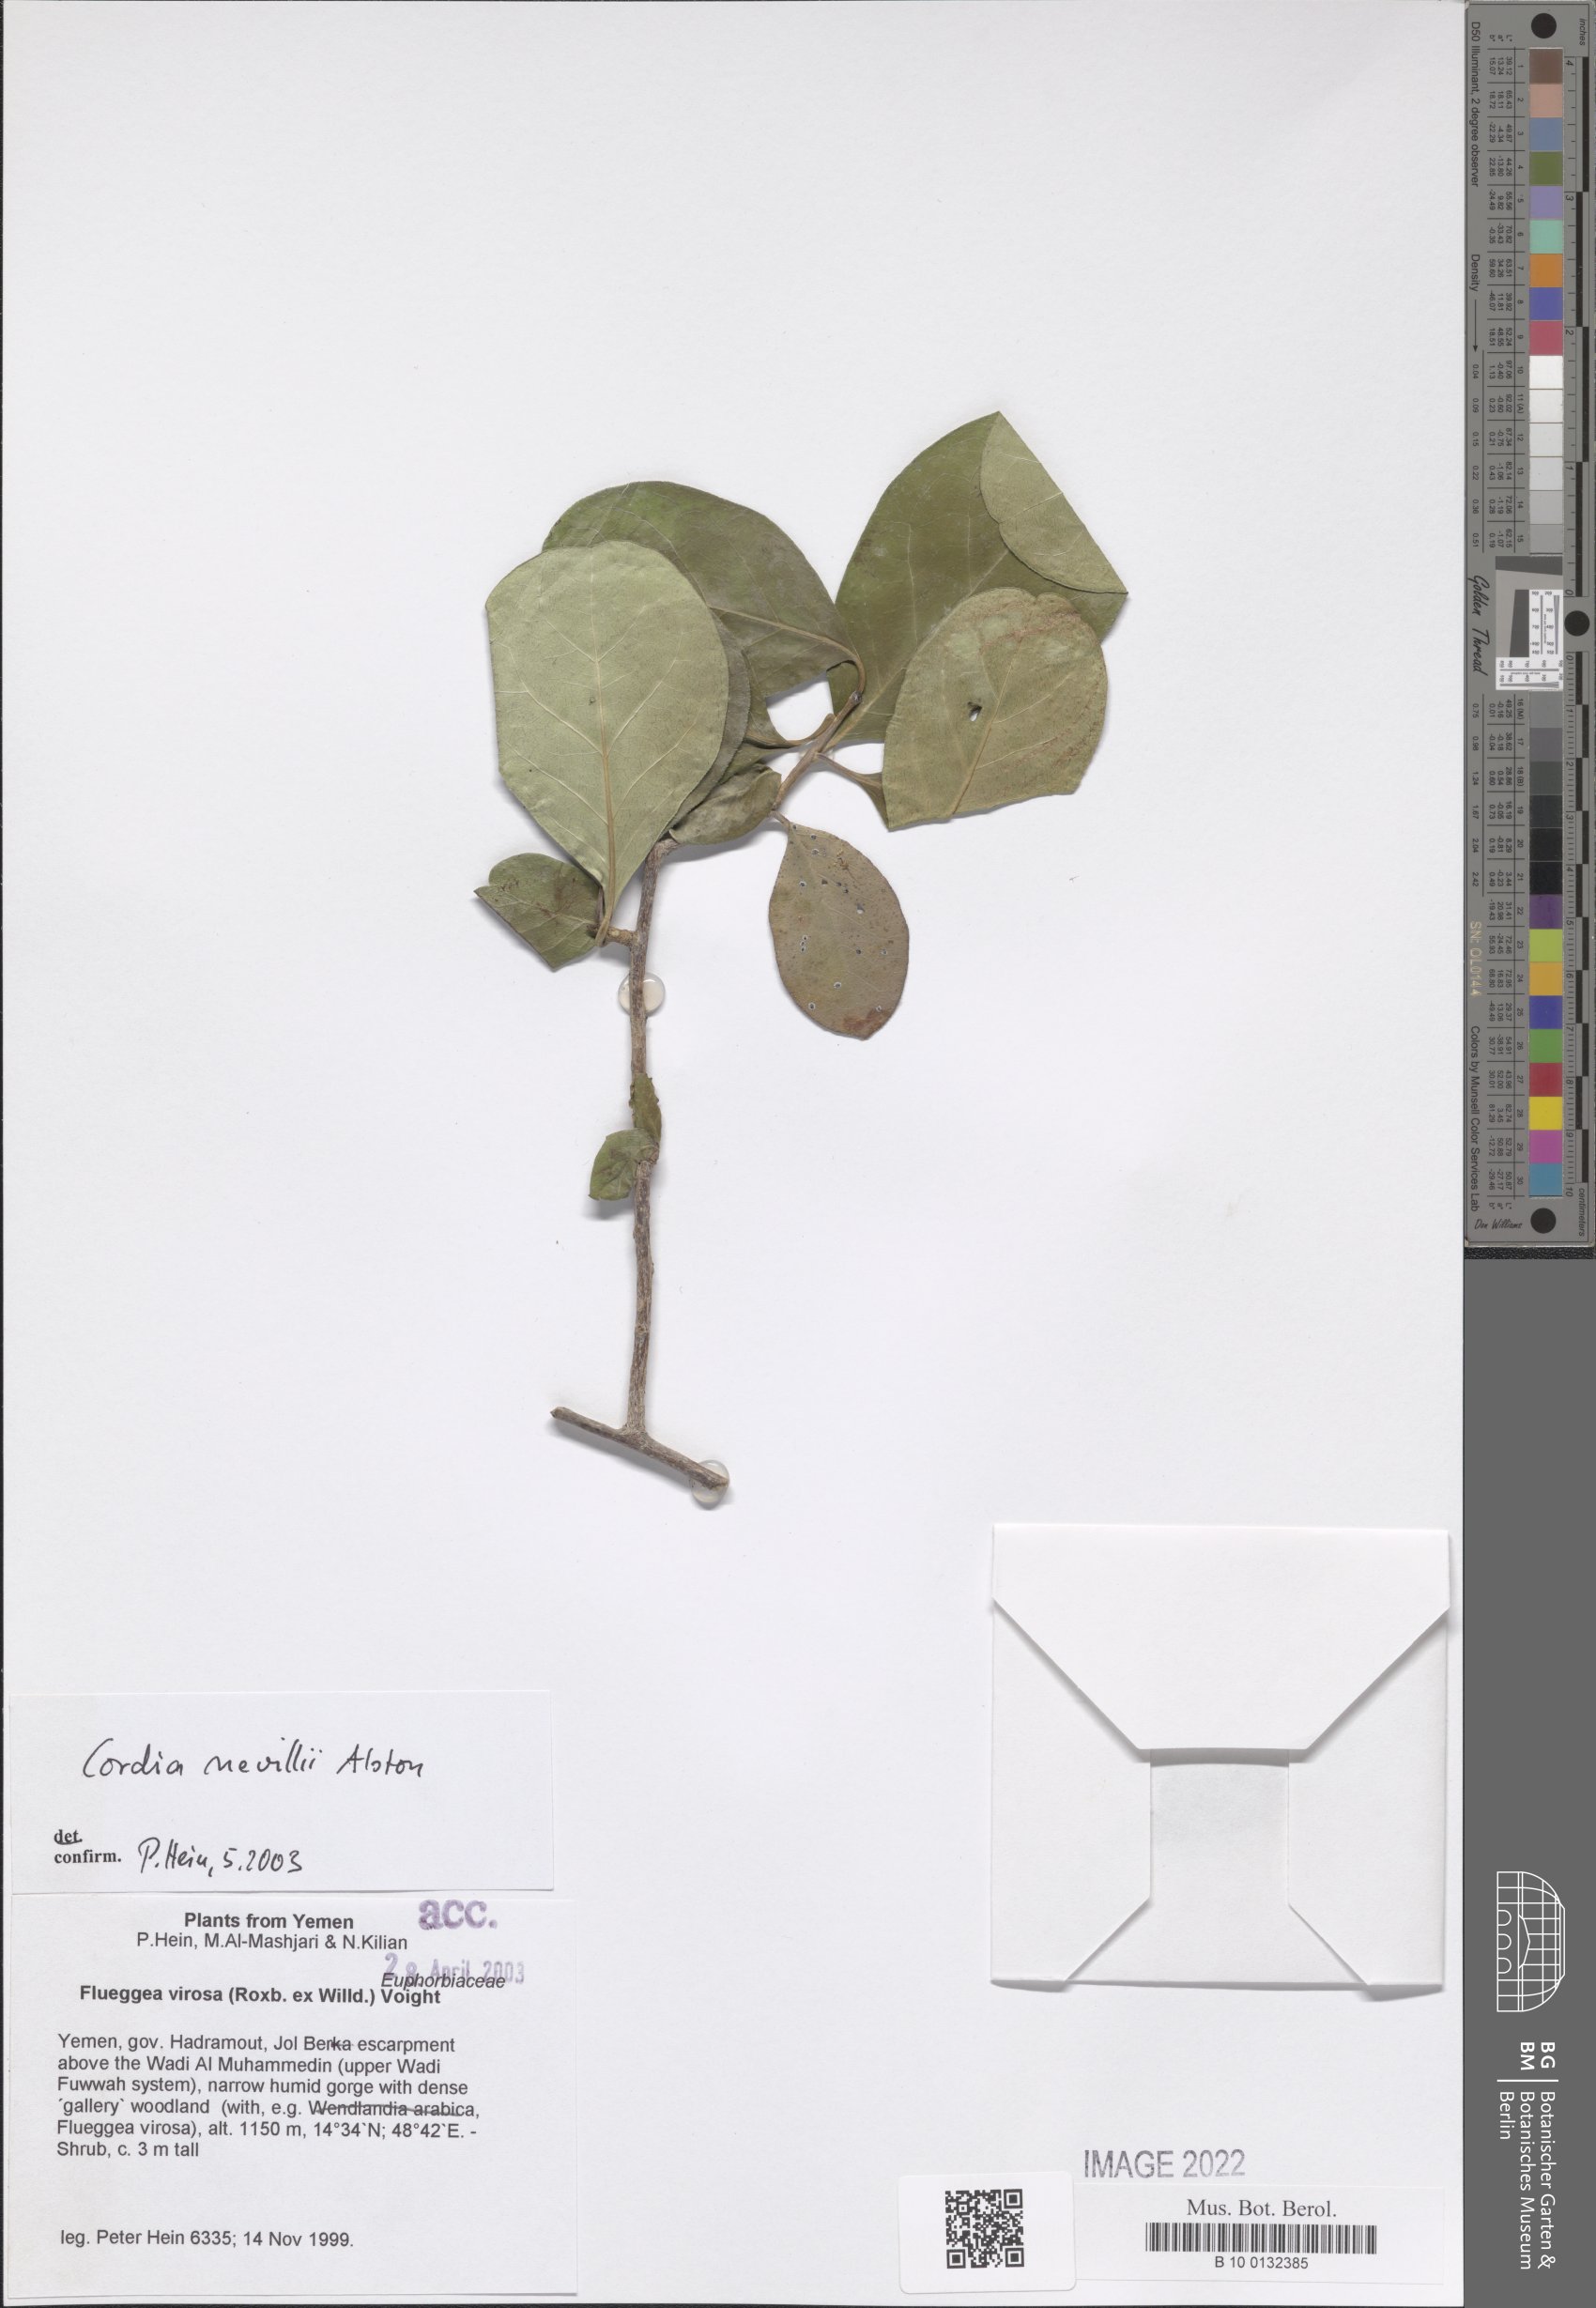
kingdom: Plantae
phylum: Tracheophyta
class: Magnoliopsida
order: Boraginales
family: Cordiaceae
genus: Cordia
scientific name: Cordia quercifolia
